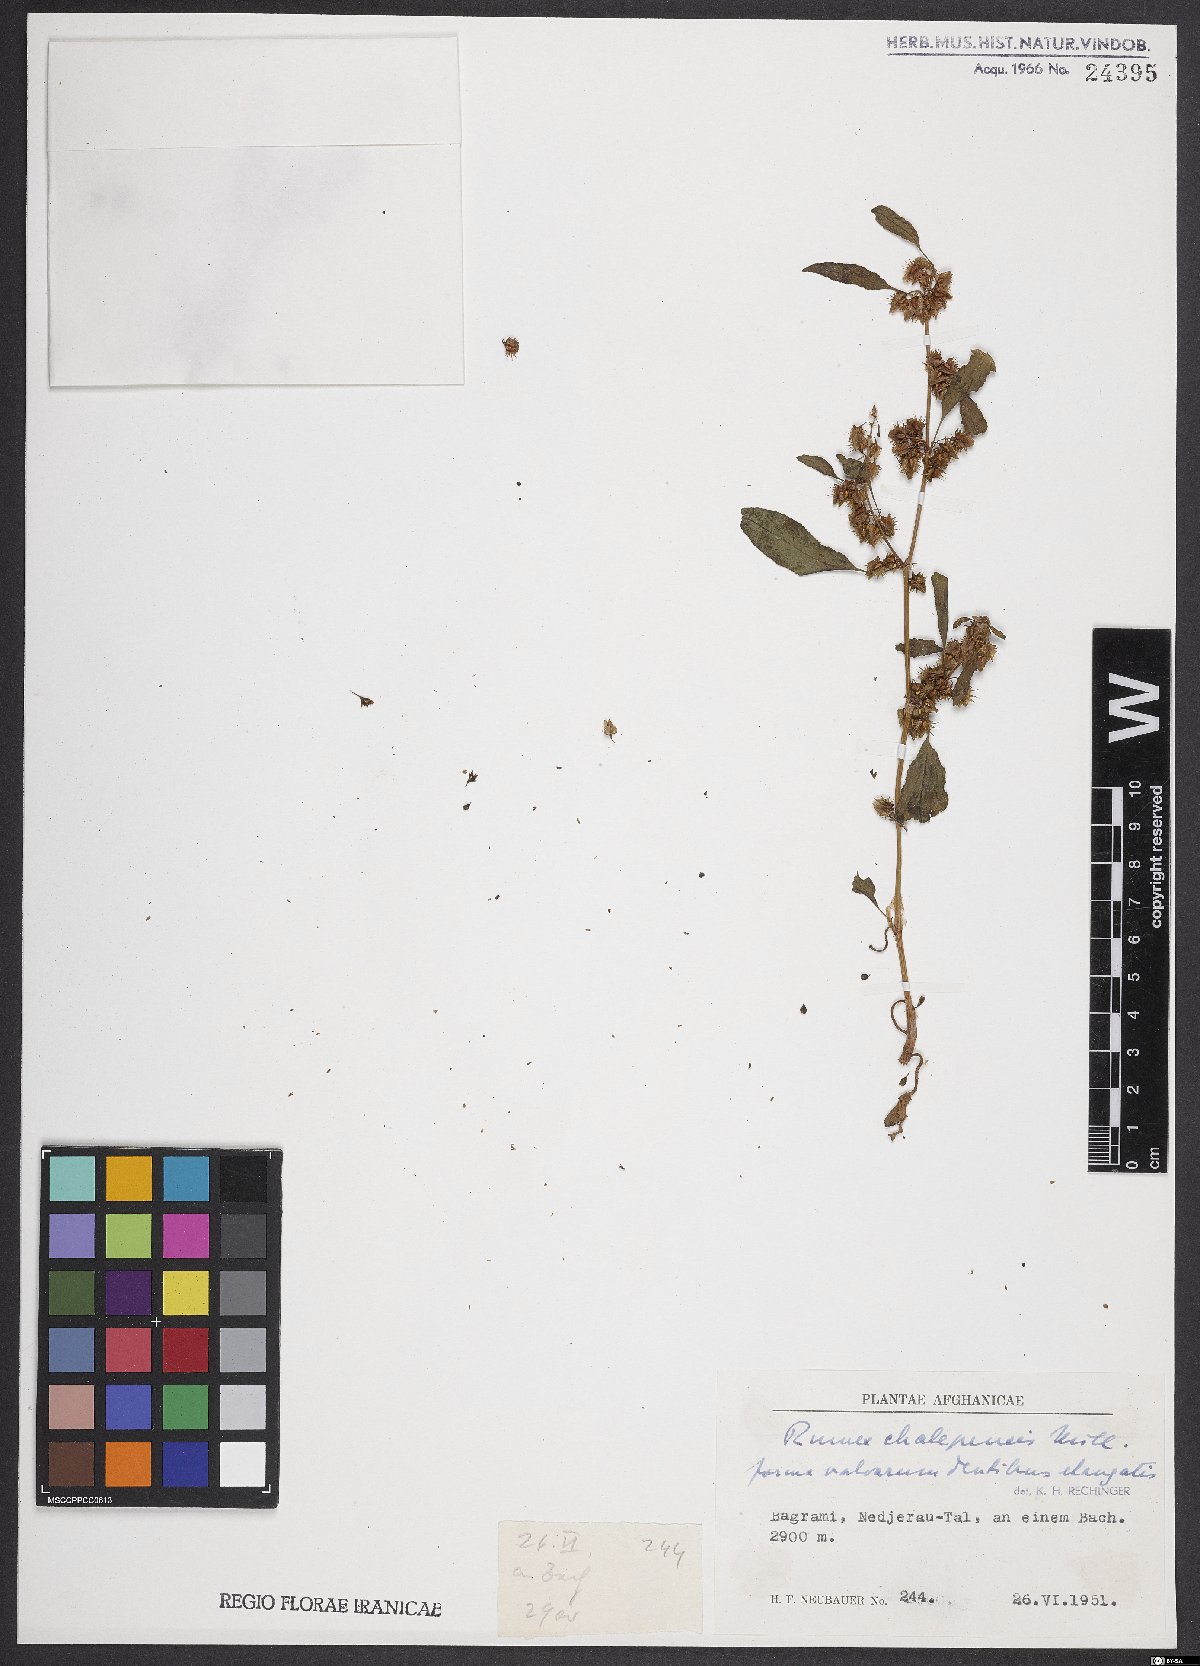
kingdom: Plantae
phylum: Tracheophyta
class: Magnoliopsida
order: Caryophyllales
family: Polygonaceae
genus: Rumex
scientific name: Rumex chalepensis
